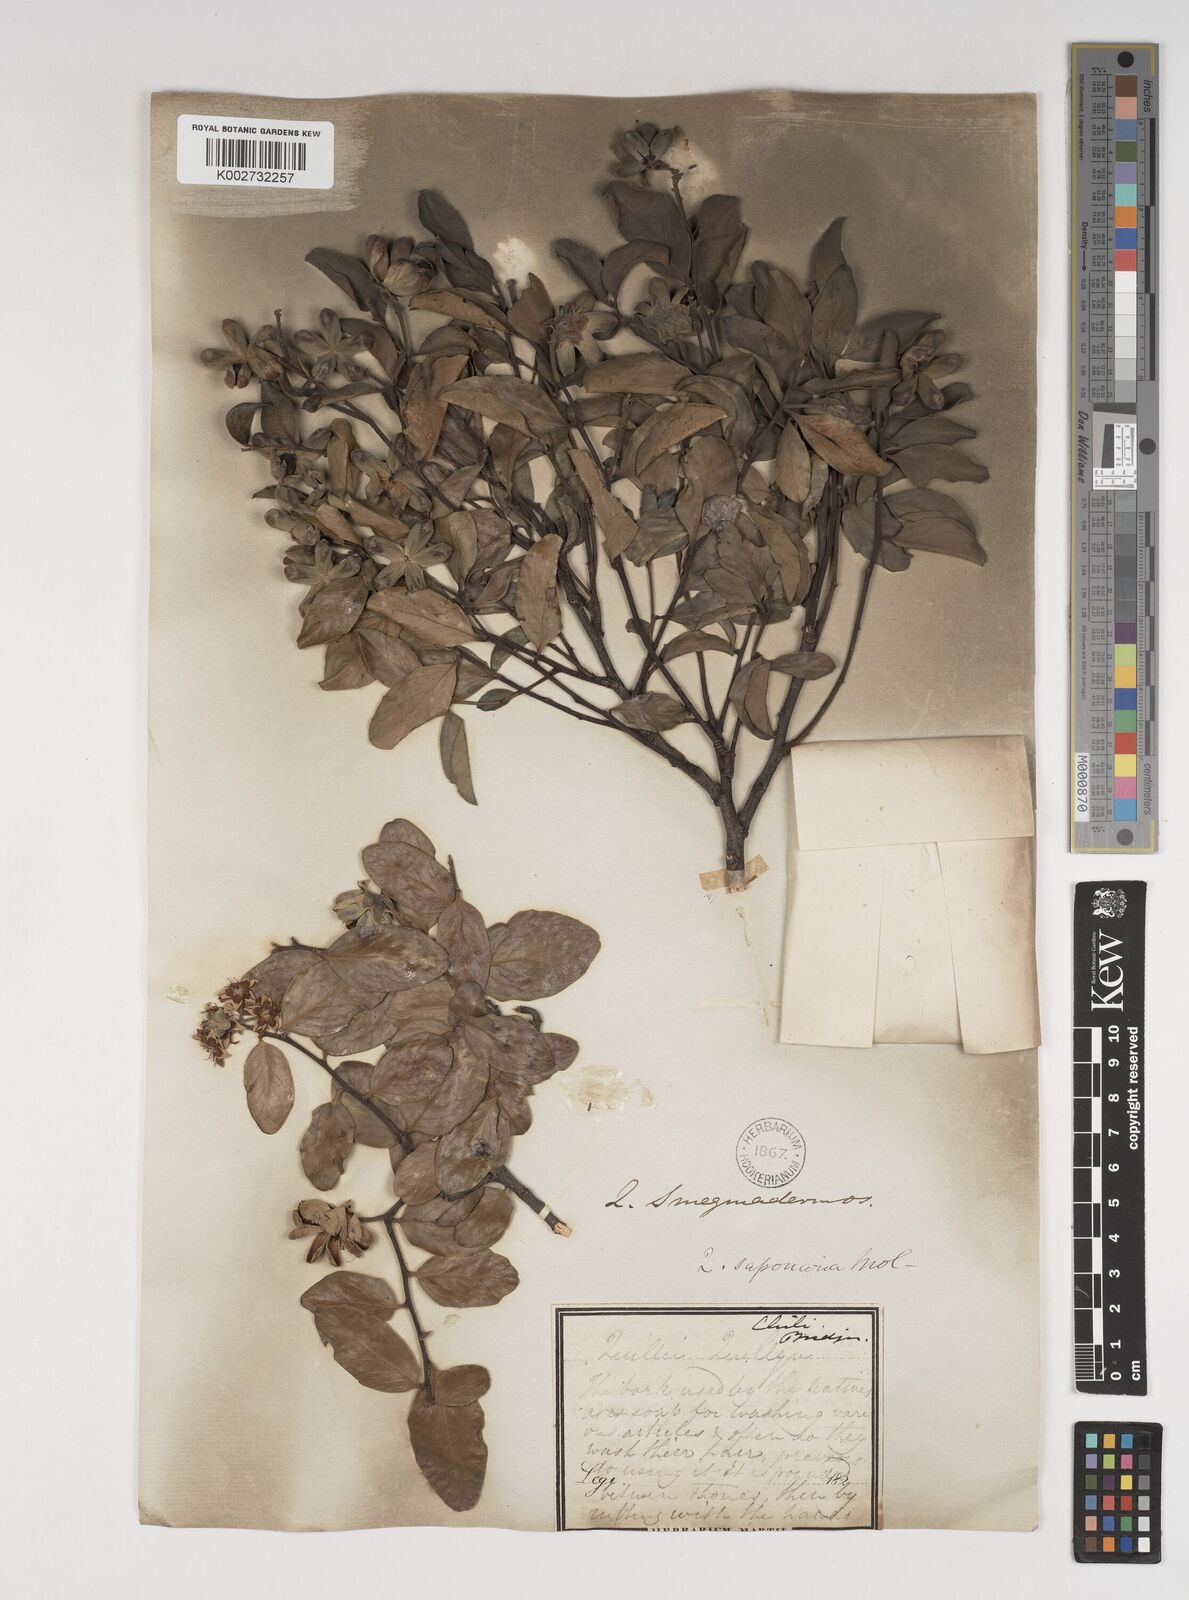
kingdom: Plantae
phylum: Tracheophyta
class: Magnoliopsida
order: Fabales
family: Quillajaceae
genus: Quillaja
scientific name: Quillaja saponaria
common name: Murillo's-bark
